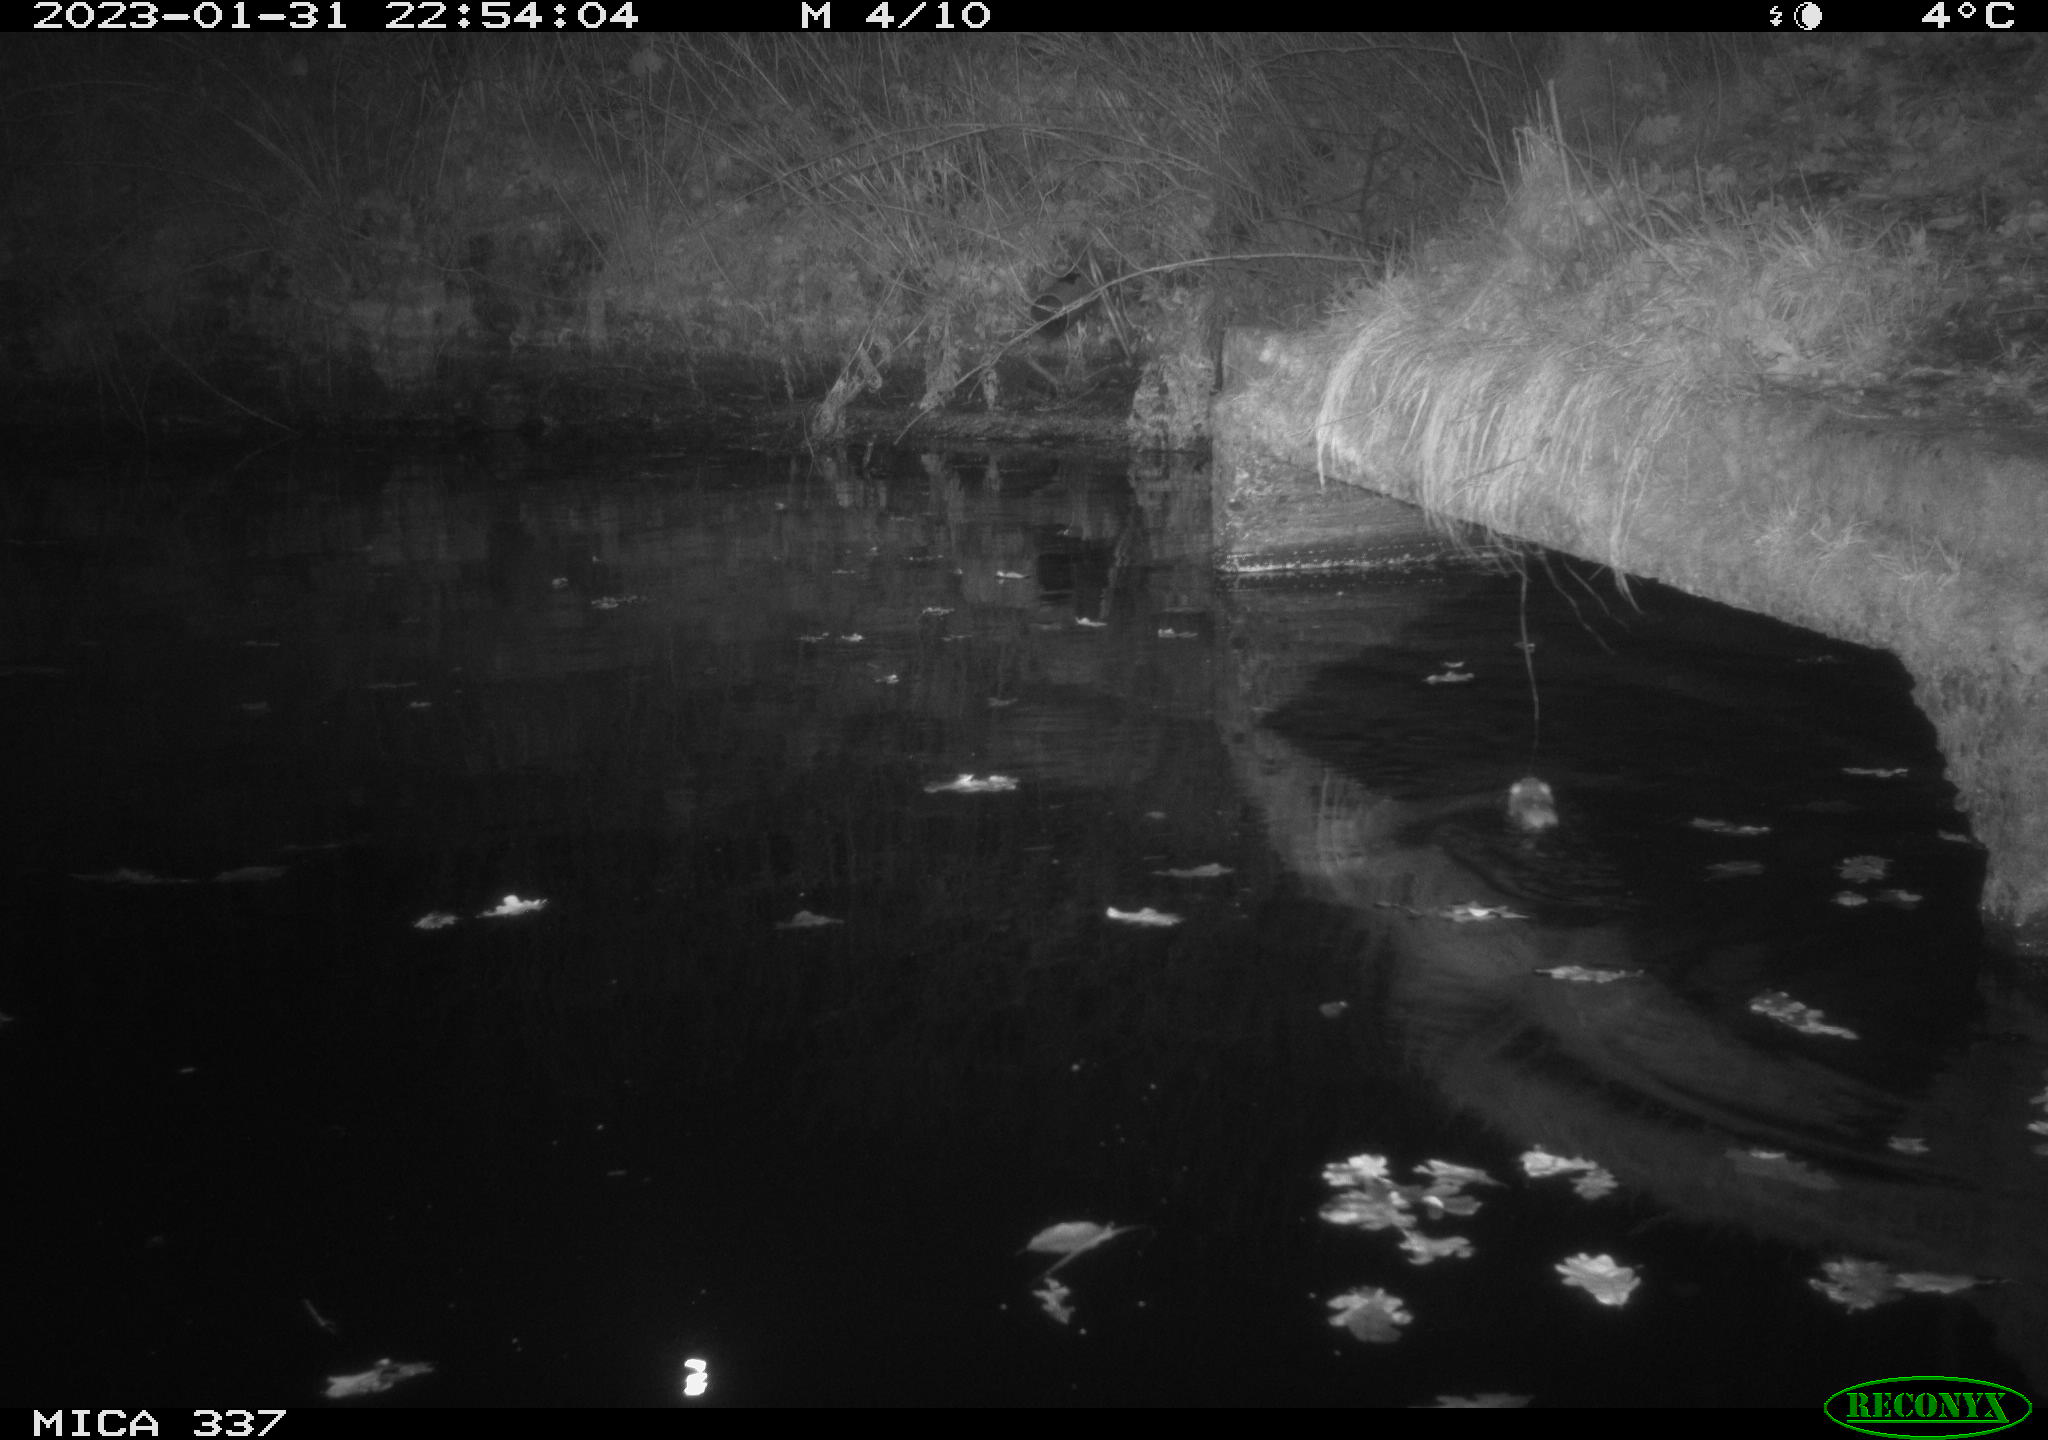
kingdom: Animalia
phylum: Chordata
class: Mammalia
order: Rodentia
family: Muridae
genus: Rattus
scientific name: Rattus norvegicus
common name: Brown rat
